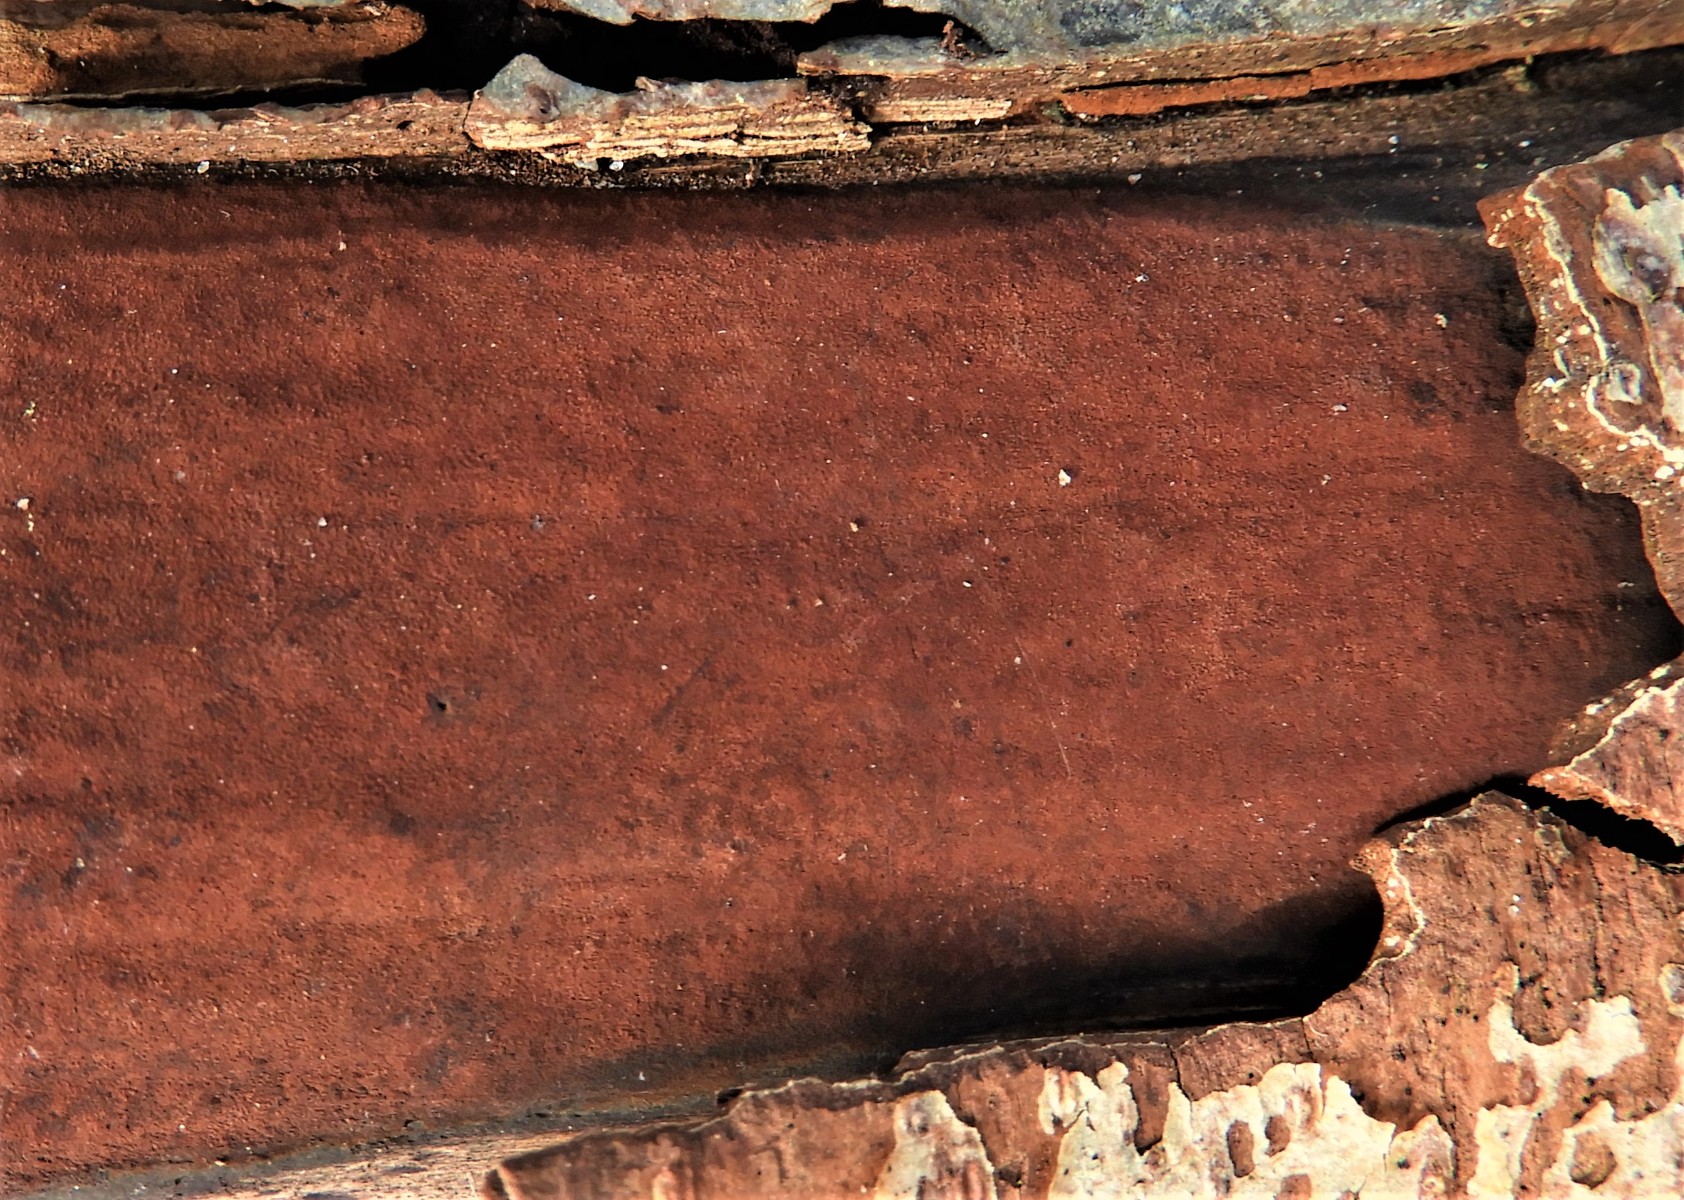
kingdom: Fungi
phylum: Ascomycota
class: Sordariomycetes
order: Xylariales
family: Hypoxylaceae
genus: Hypoxylon
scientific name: Hypoxylon
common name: kulbær
